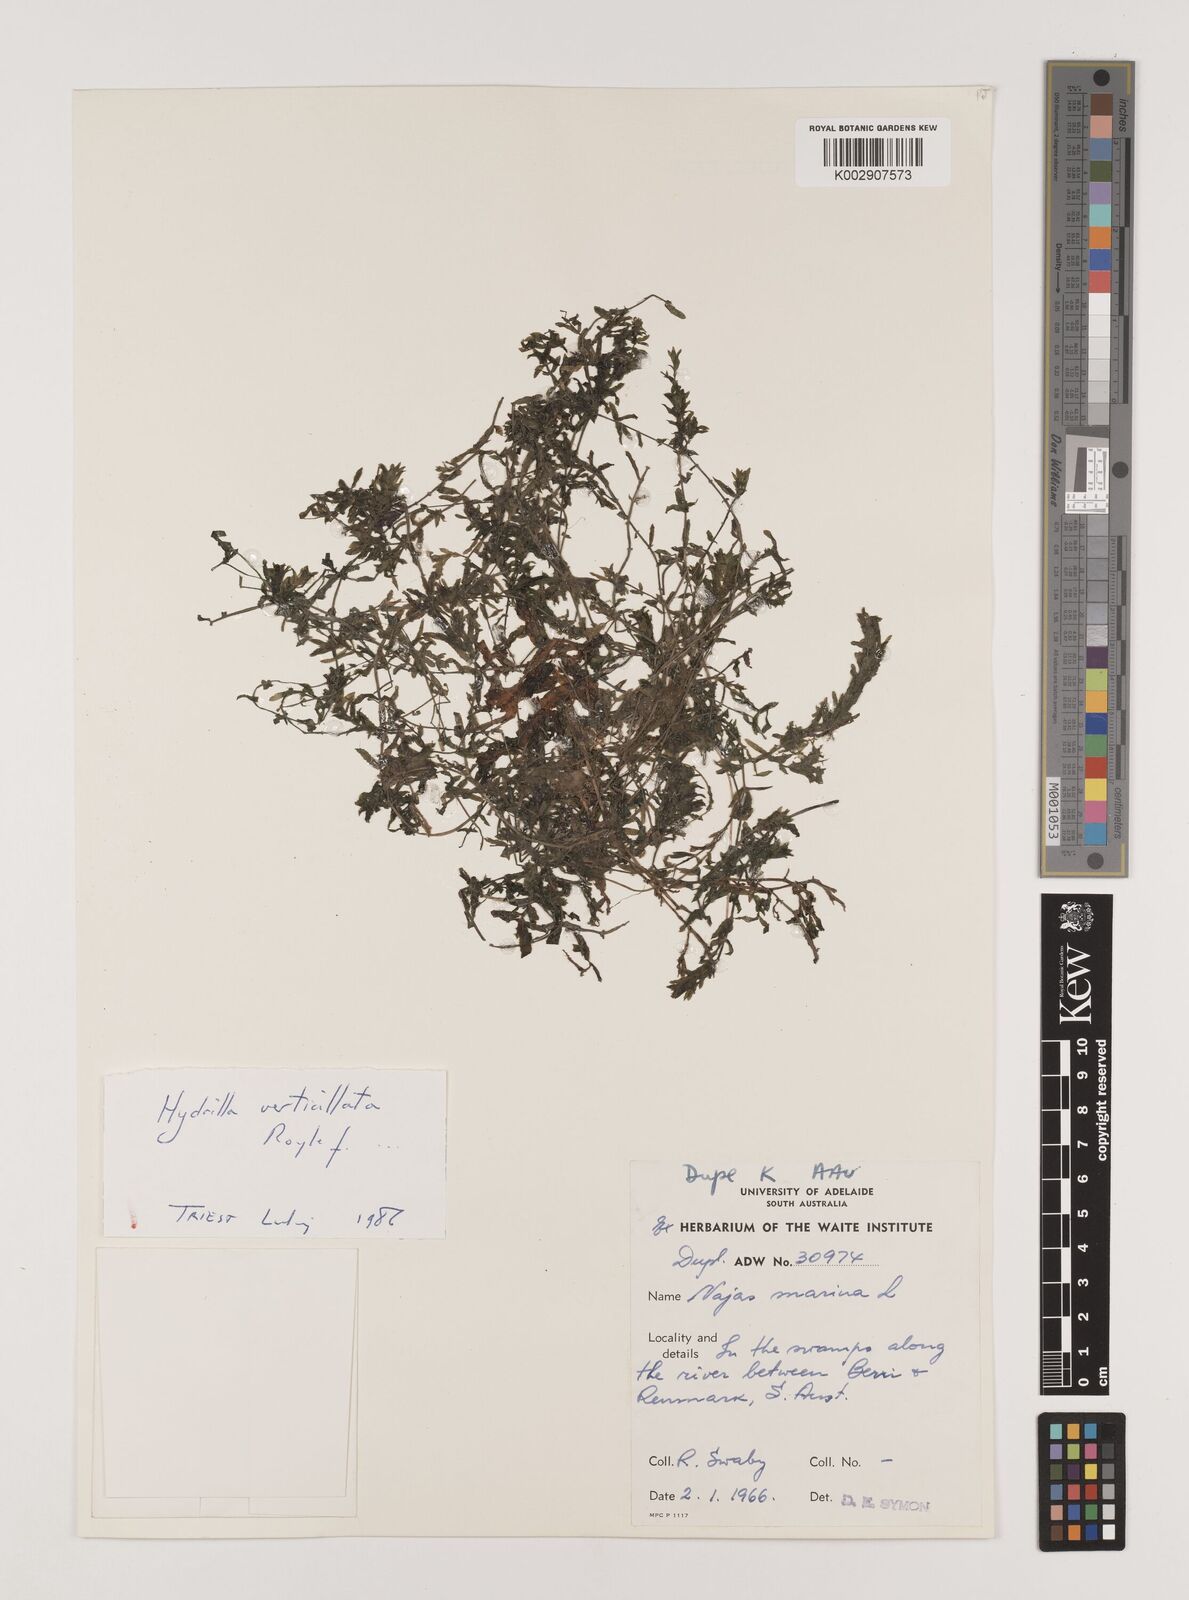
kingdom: Plantae
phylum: Tracheophyta
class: Liliopsida
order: Alismatales
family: Hydrocharitaceae
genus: Najas
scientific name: Najas marina
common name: Holly-leaved naiad
